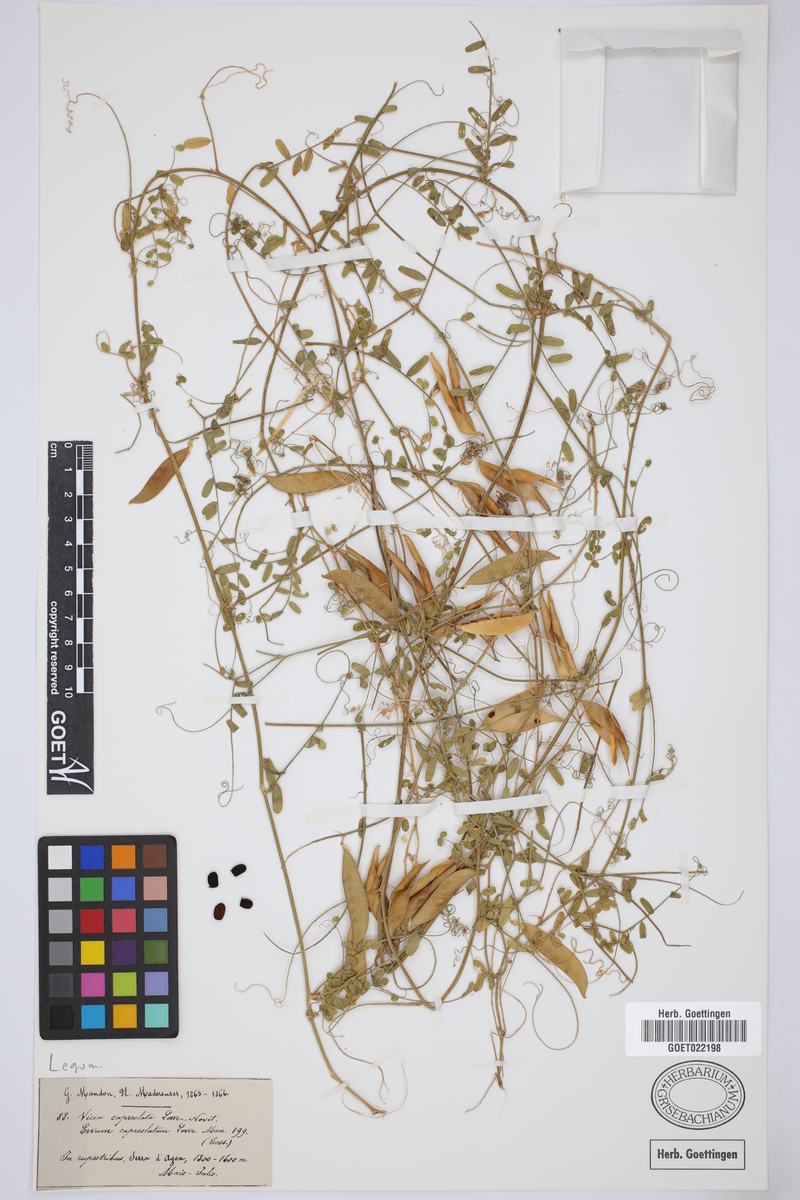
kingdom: Plantae
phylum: Tracheophyta
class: Magnoliopsida
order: Fabales
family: Fabaceae
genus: Vicia
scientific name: Vicia capreolata
